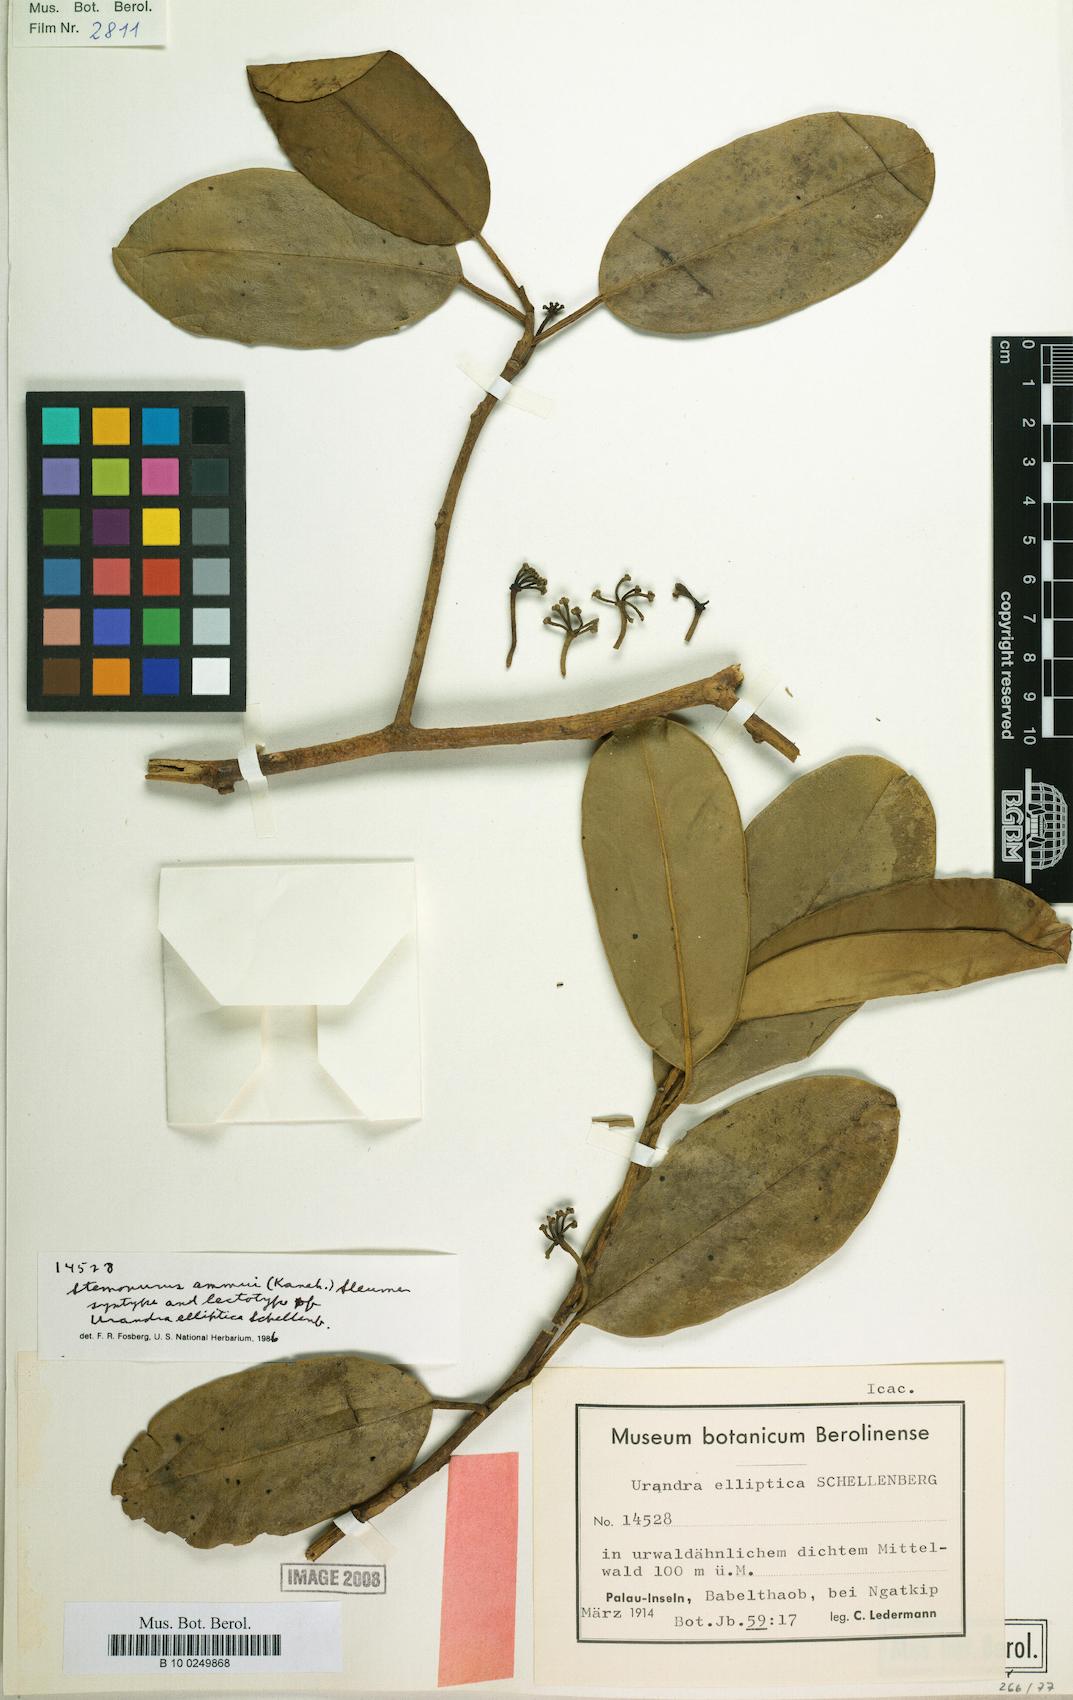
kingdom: Plantae
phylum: Tracheophyta
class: Magnoliopsida
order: Cardiopteridales
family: Stemonuraceae
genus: Stemonurus
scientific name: Stemonurus ammui
